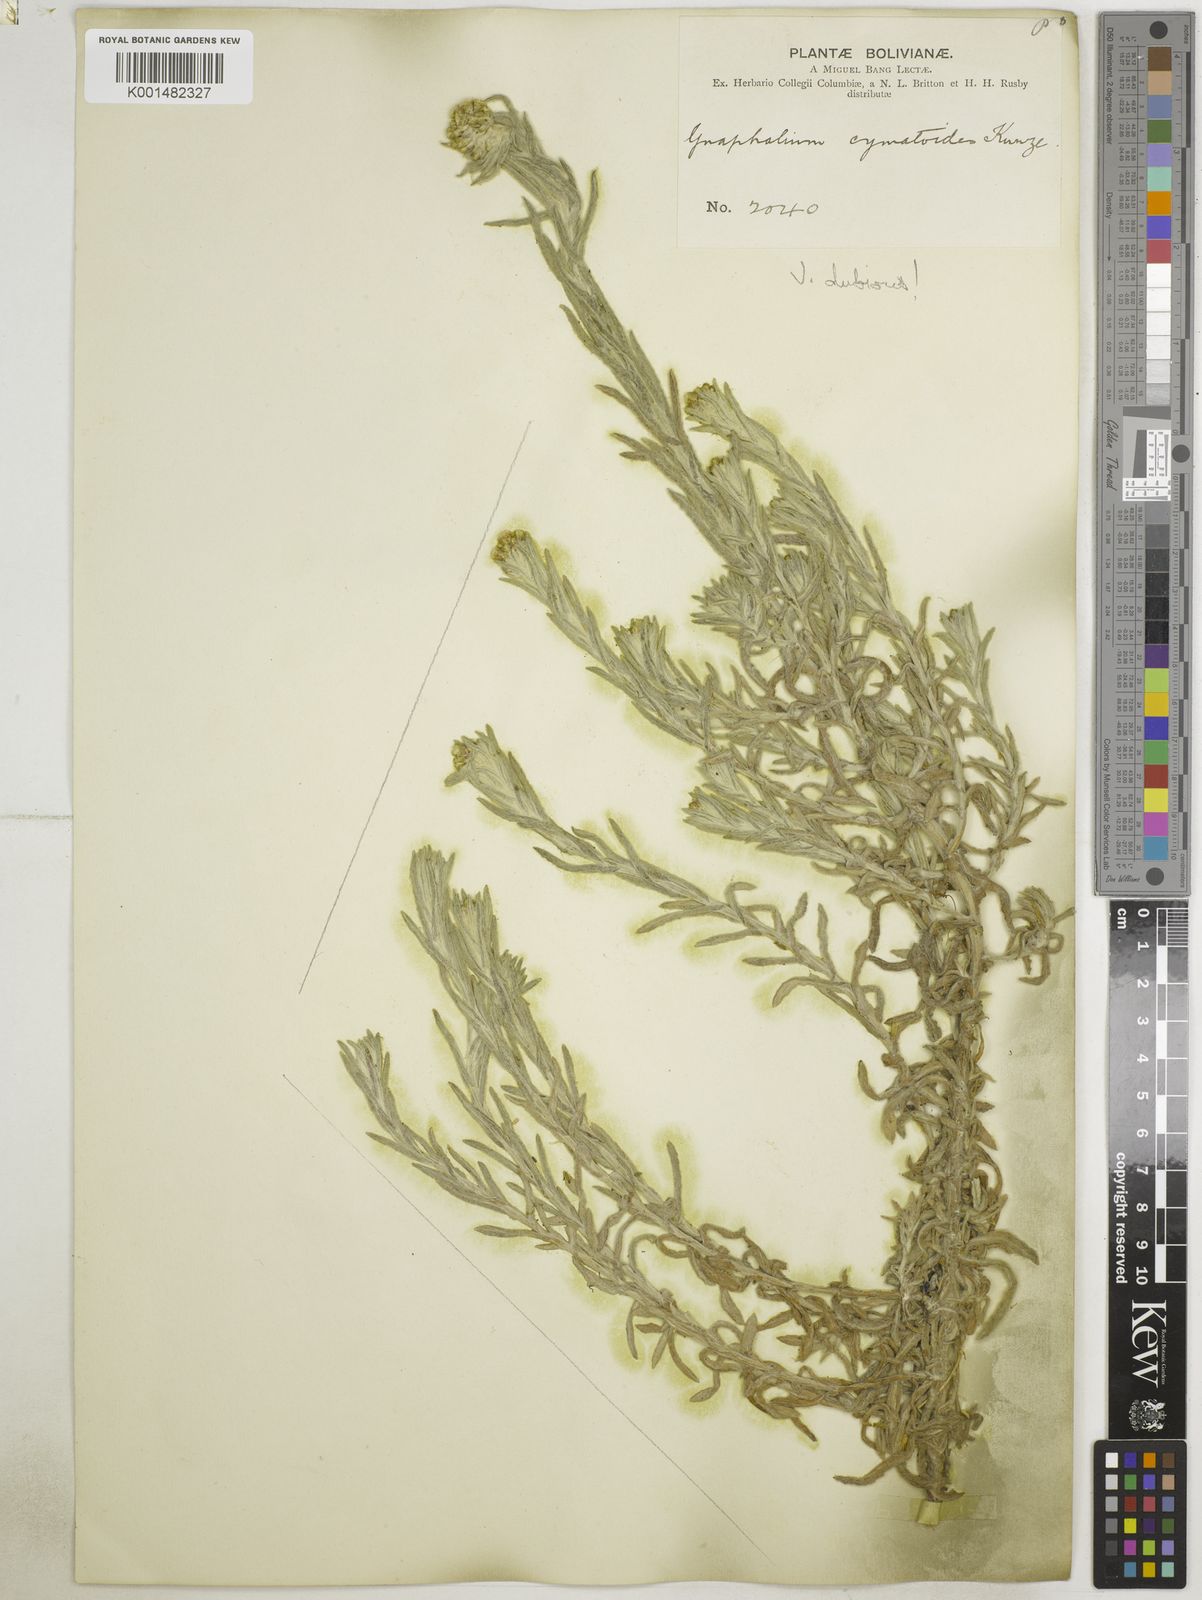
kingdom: Plantae
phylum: Tracheophyta
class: Magnoliopsida
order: Asterales
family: Asteraceae
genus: Pseudognaphalium
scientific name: Pseudognaphalium cymatoides
